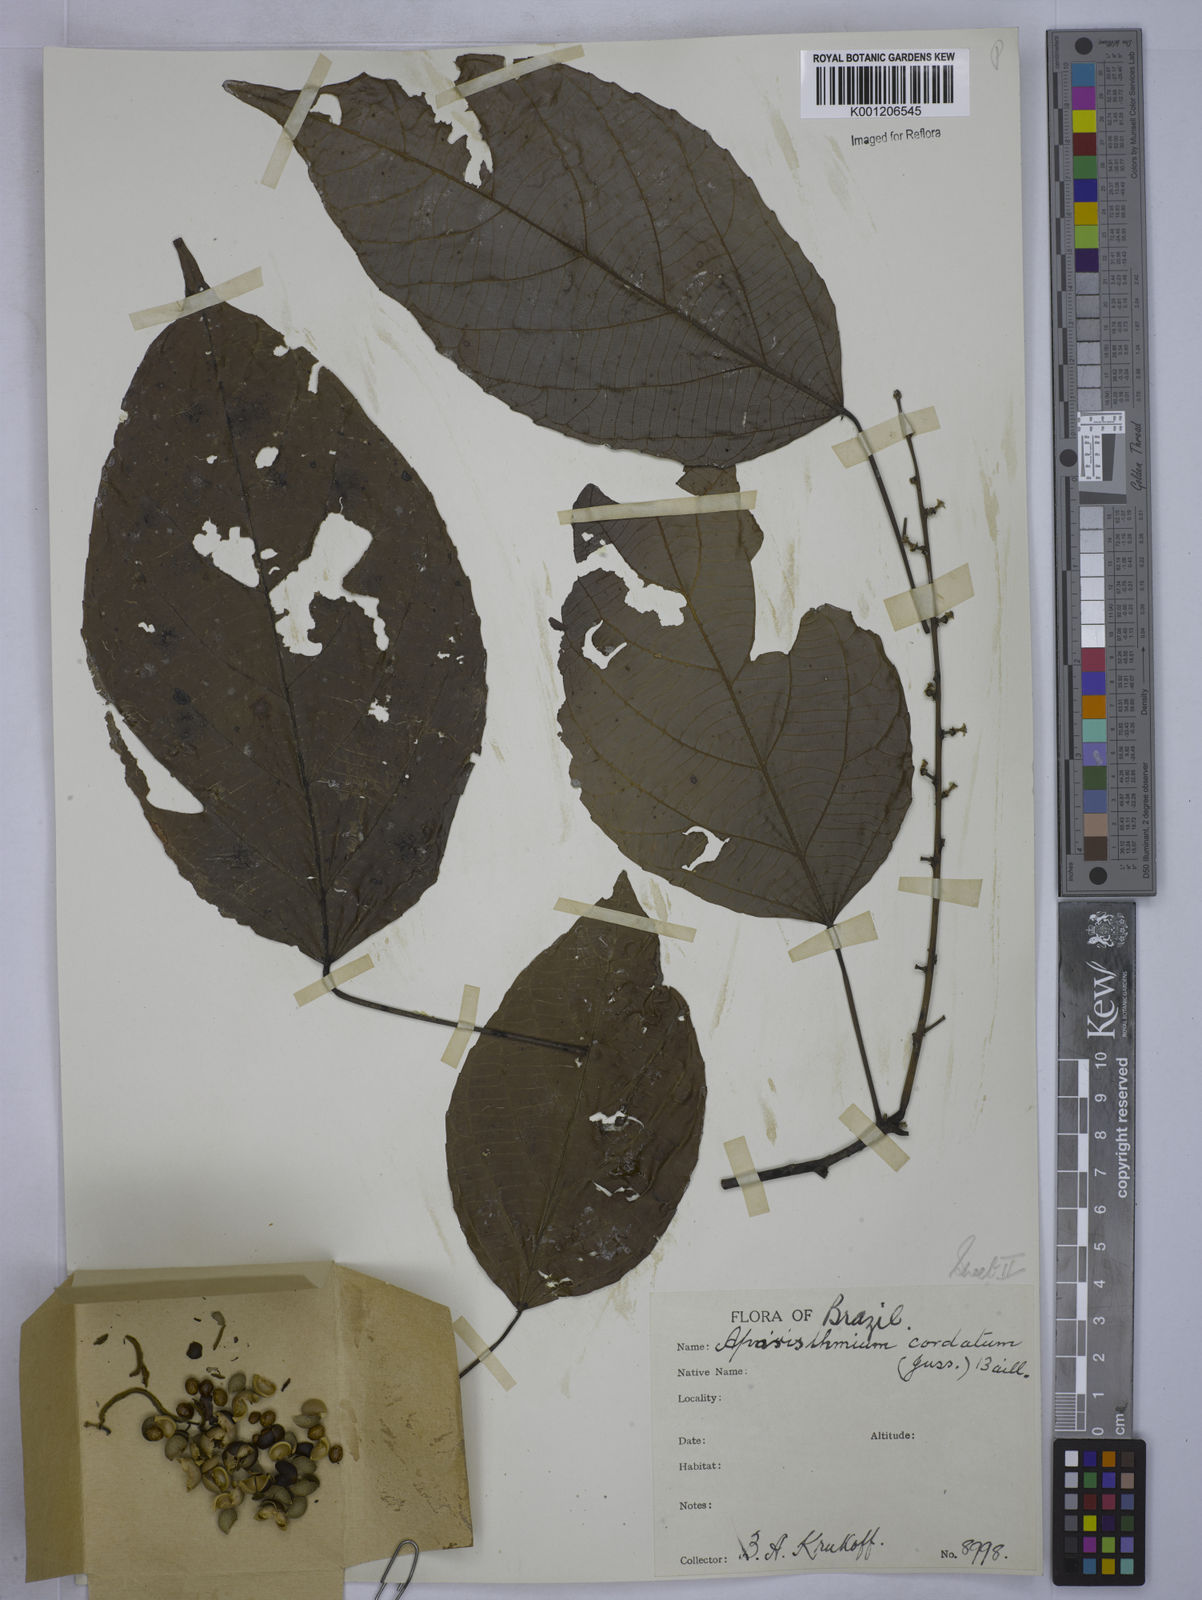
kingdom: Plantae
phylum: Tracheophyta
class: Magnoliopsida
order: Malpighiales
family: Euphorbiaceae
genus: Aparisthmium
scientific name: Aparisthmium cordatum
